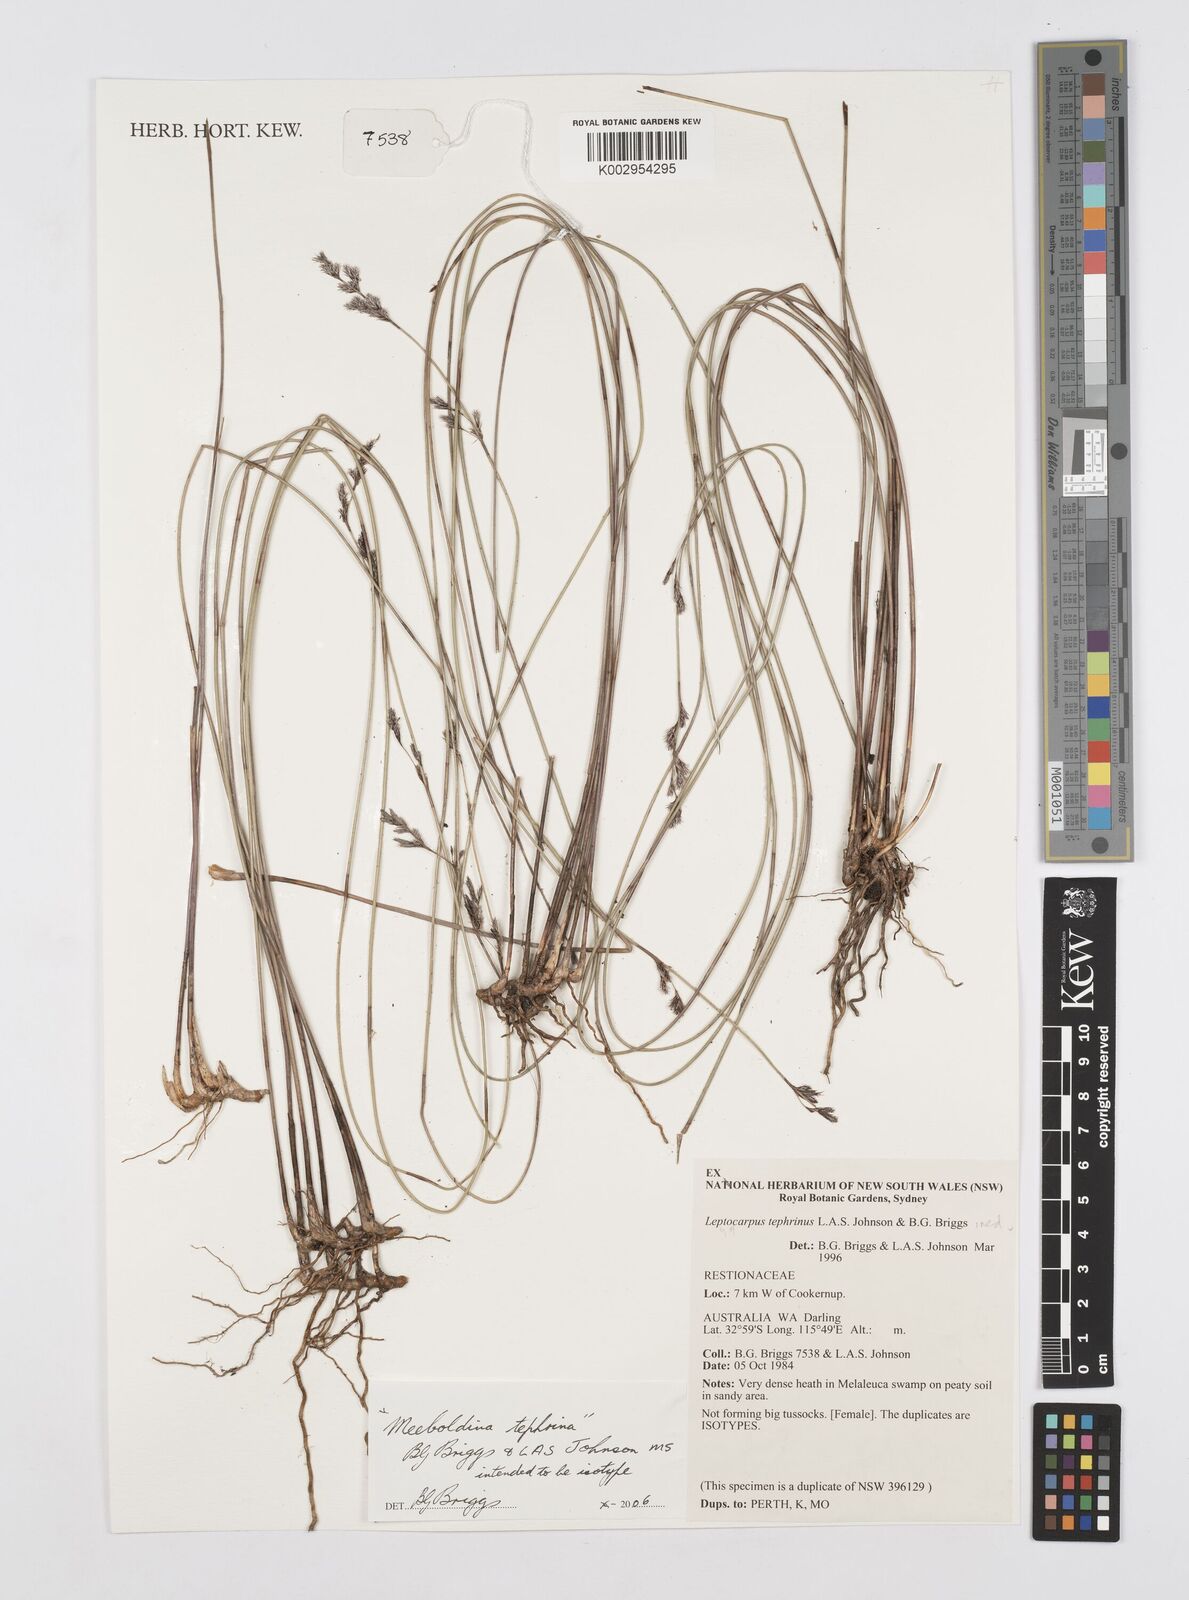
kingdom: Plantae
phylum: Tracheophyta
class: Liliopsida
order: Poales
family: Restionaceae
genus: Leptocarpus
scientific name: Leptocarpus tephrinus
